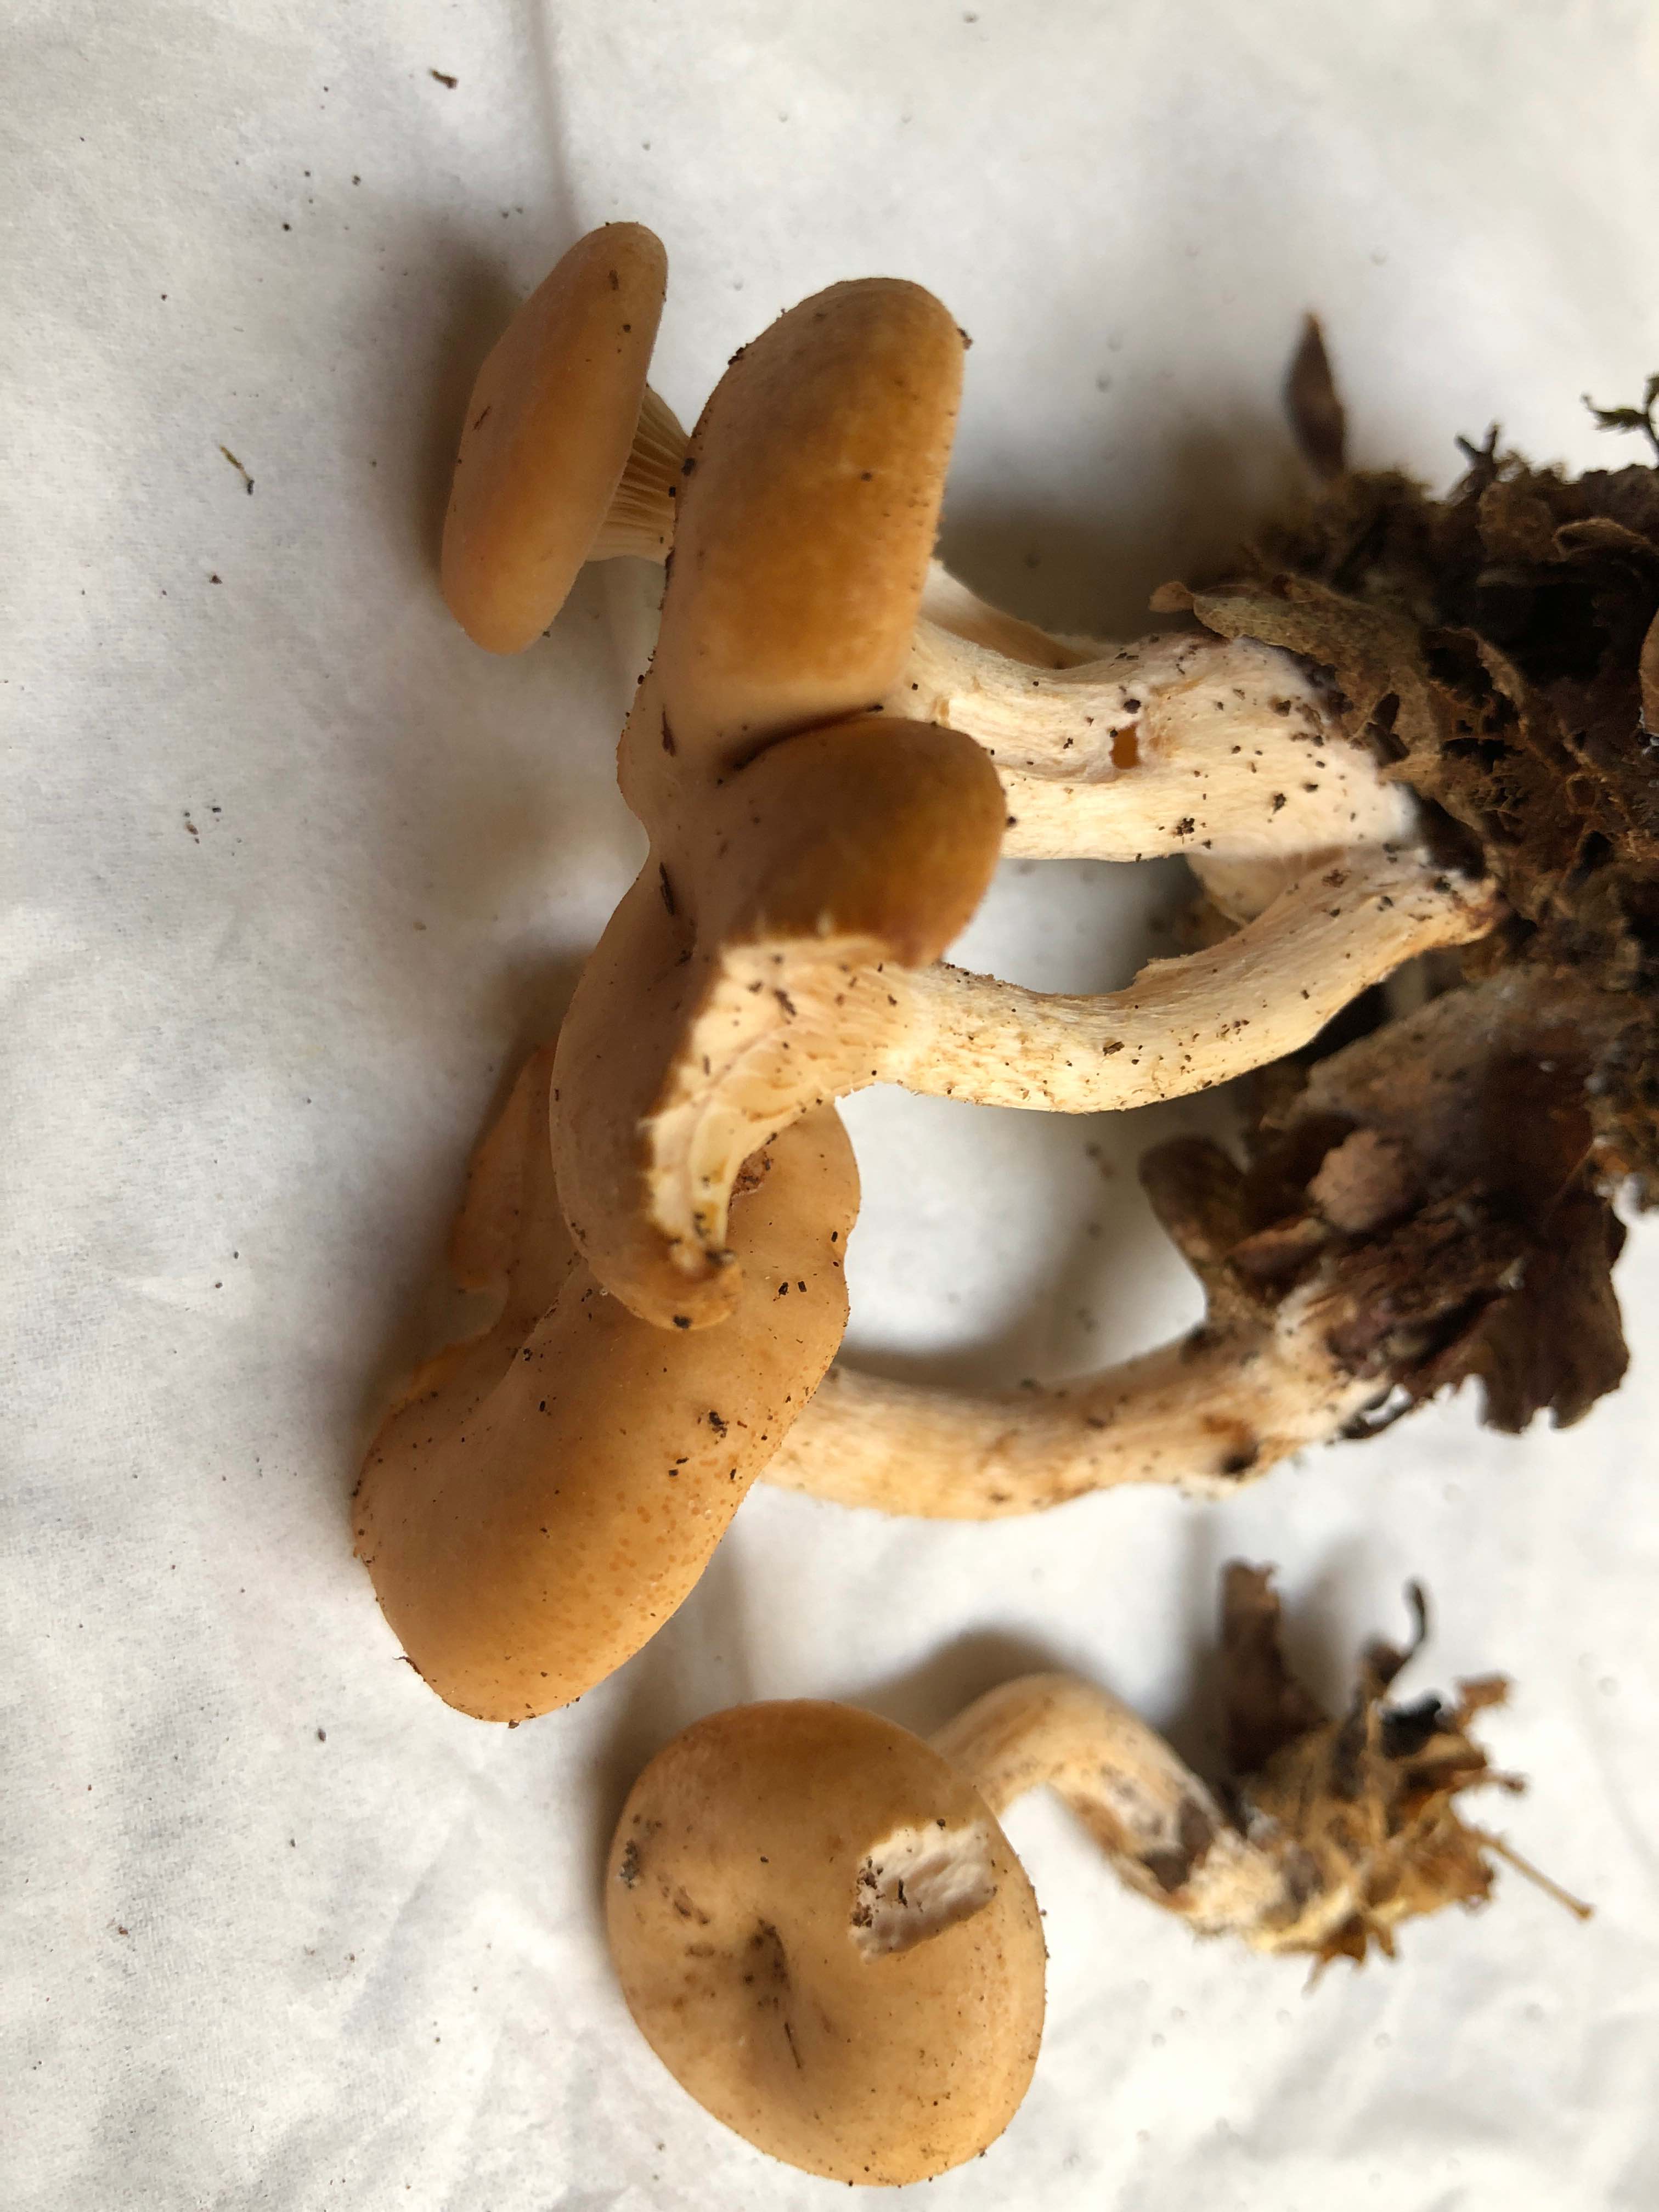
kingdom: Fungi
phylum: Basidiomycota
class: Agaricomycetes
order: Agaricales
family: Tricholomataceae
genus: Paralepista
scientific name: Paralepista gilva
